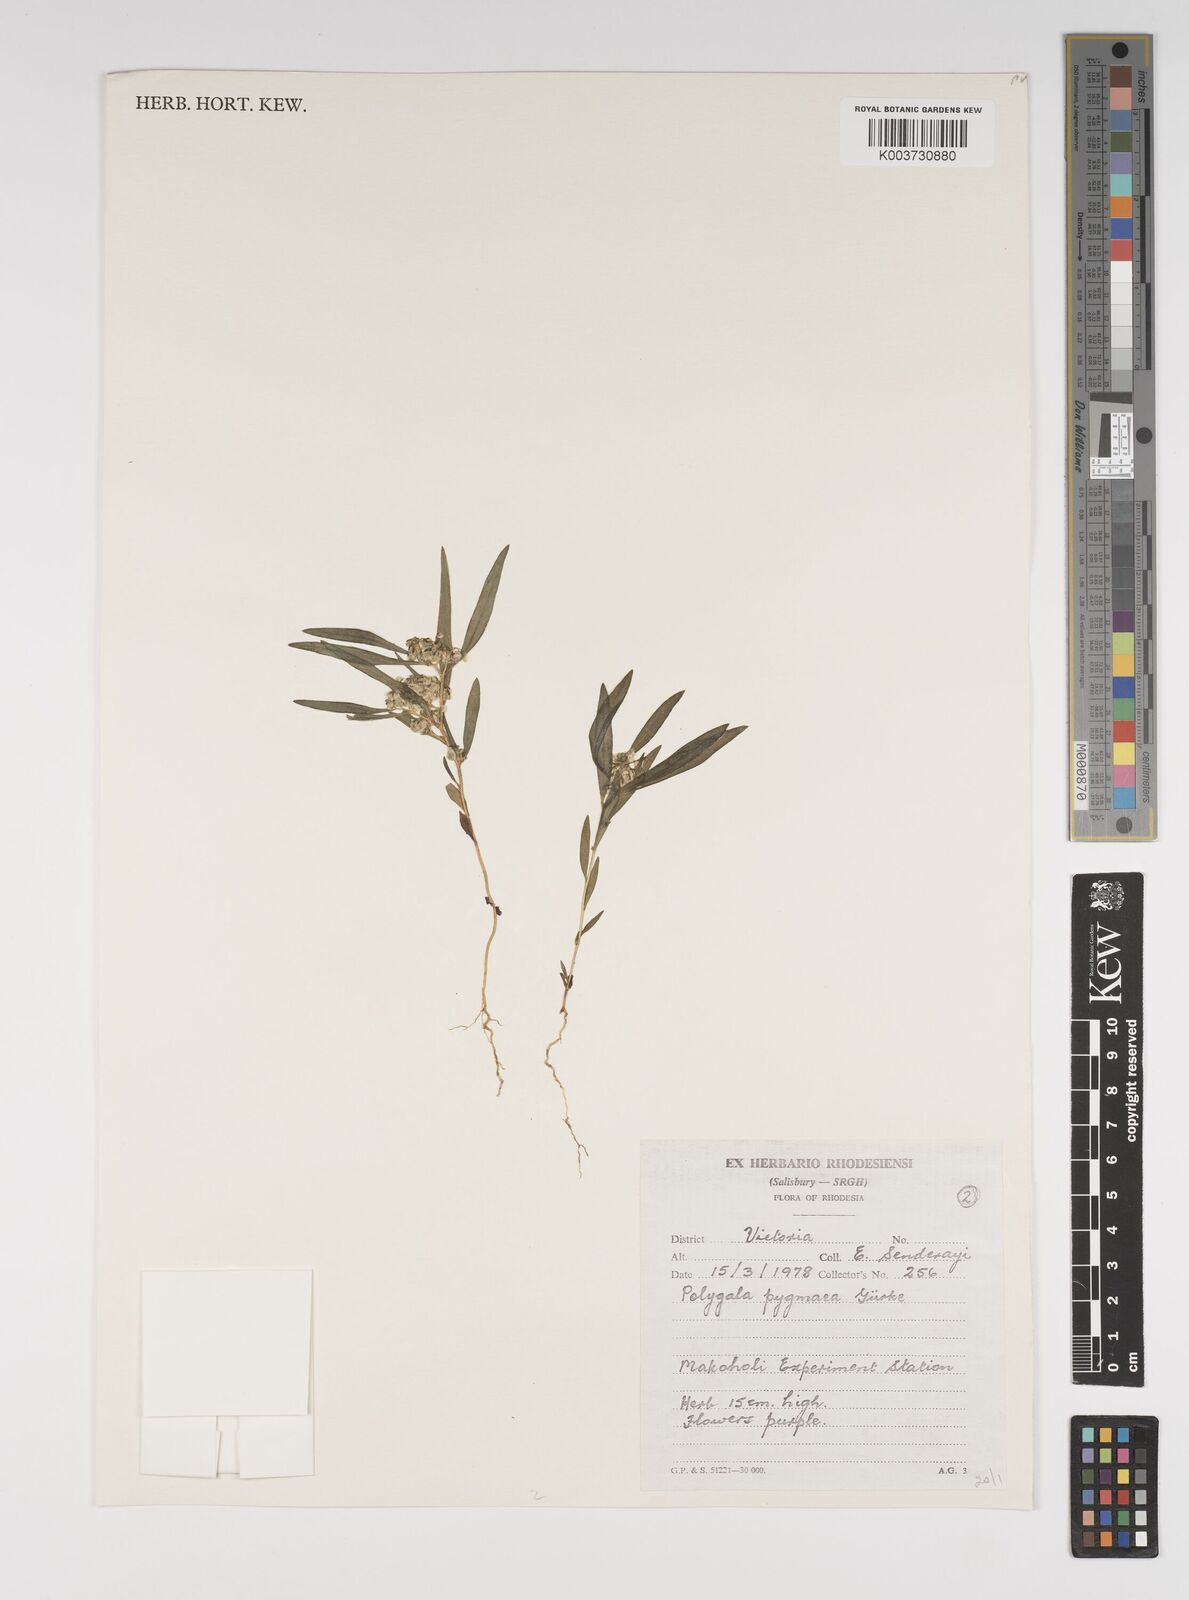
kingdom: Plantae
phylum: Tracheophyta
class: Magnoliopsida
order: Fabales
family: Polygalaceae
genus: Polygala
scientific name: Polygala welwitschii
